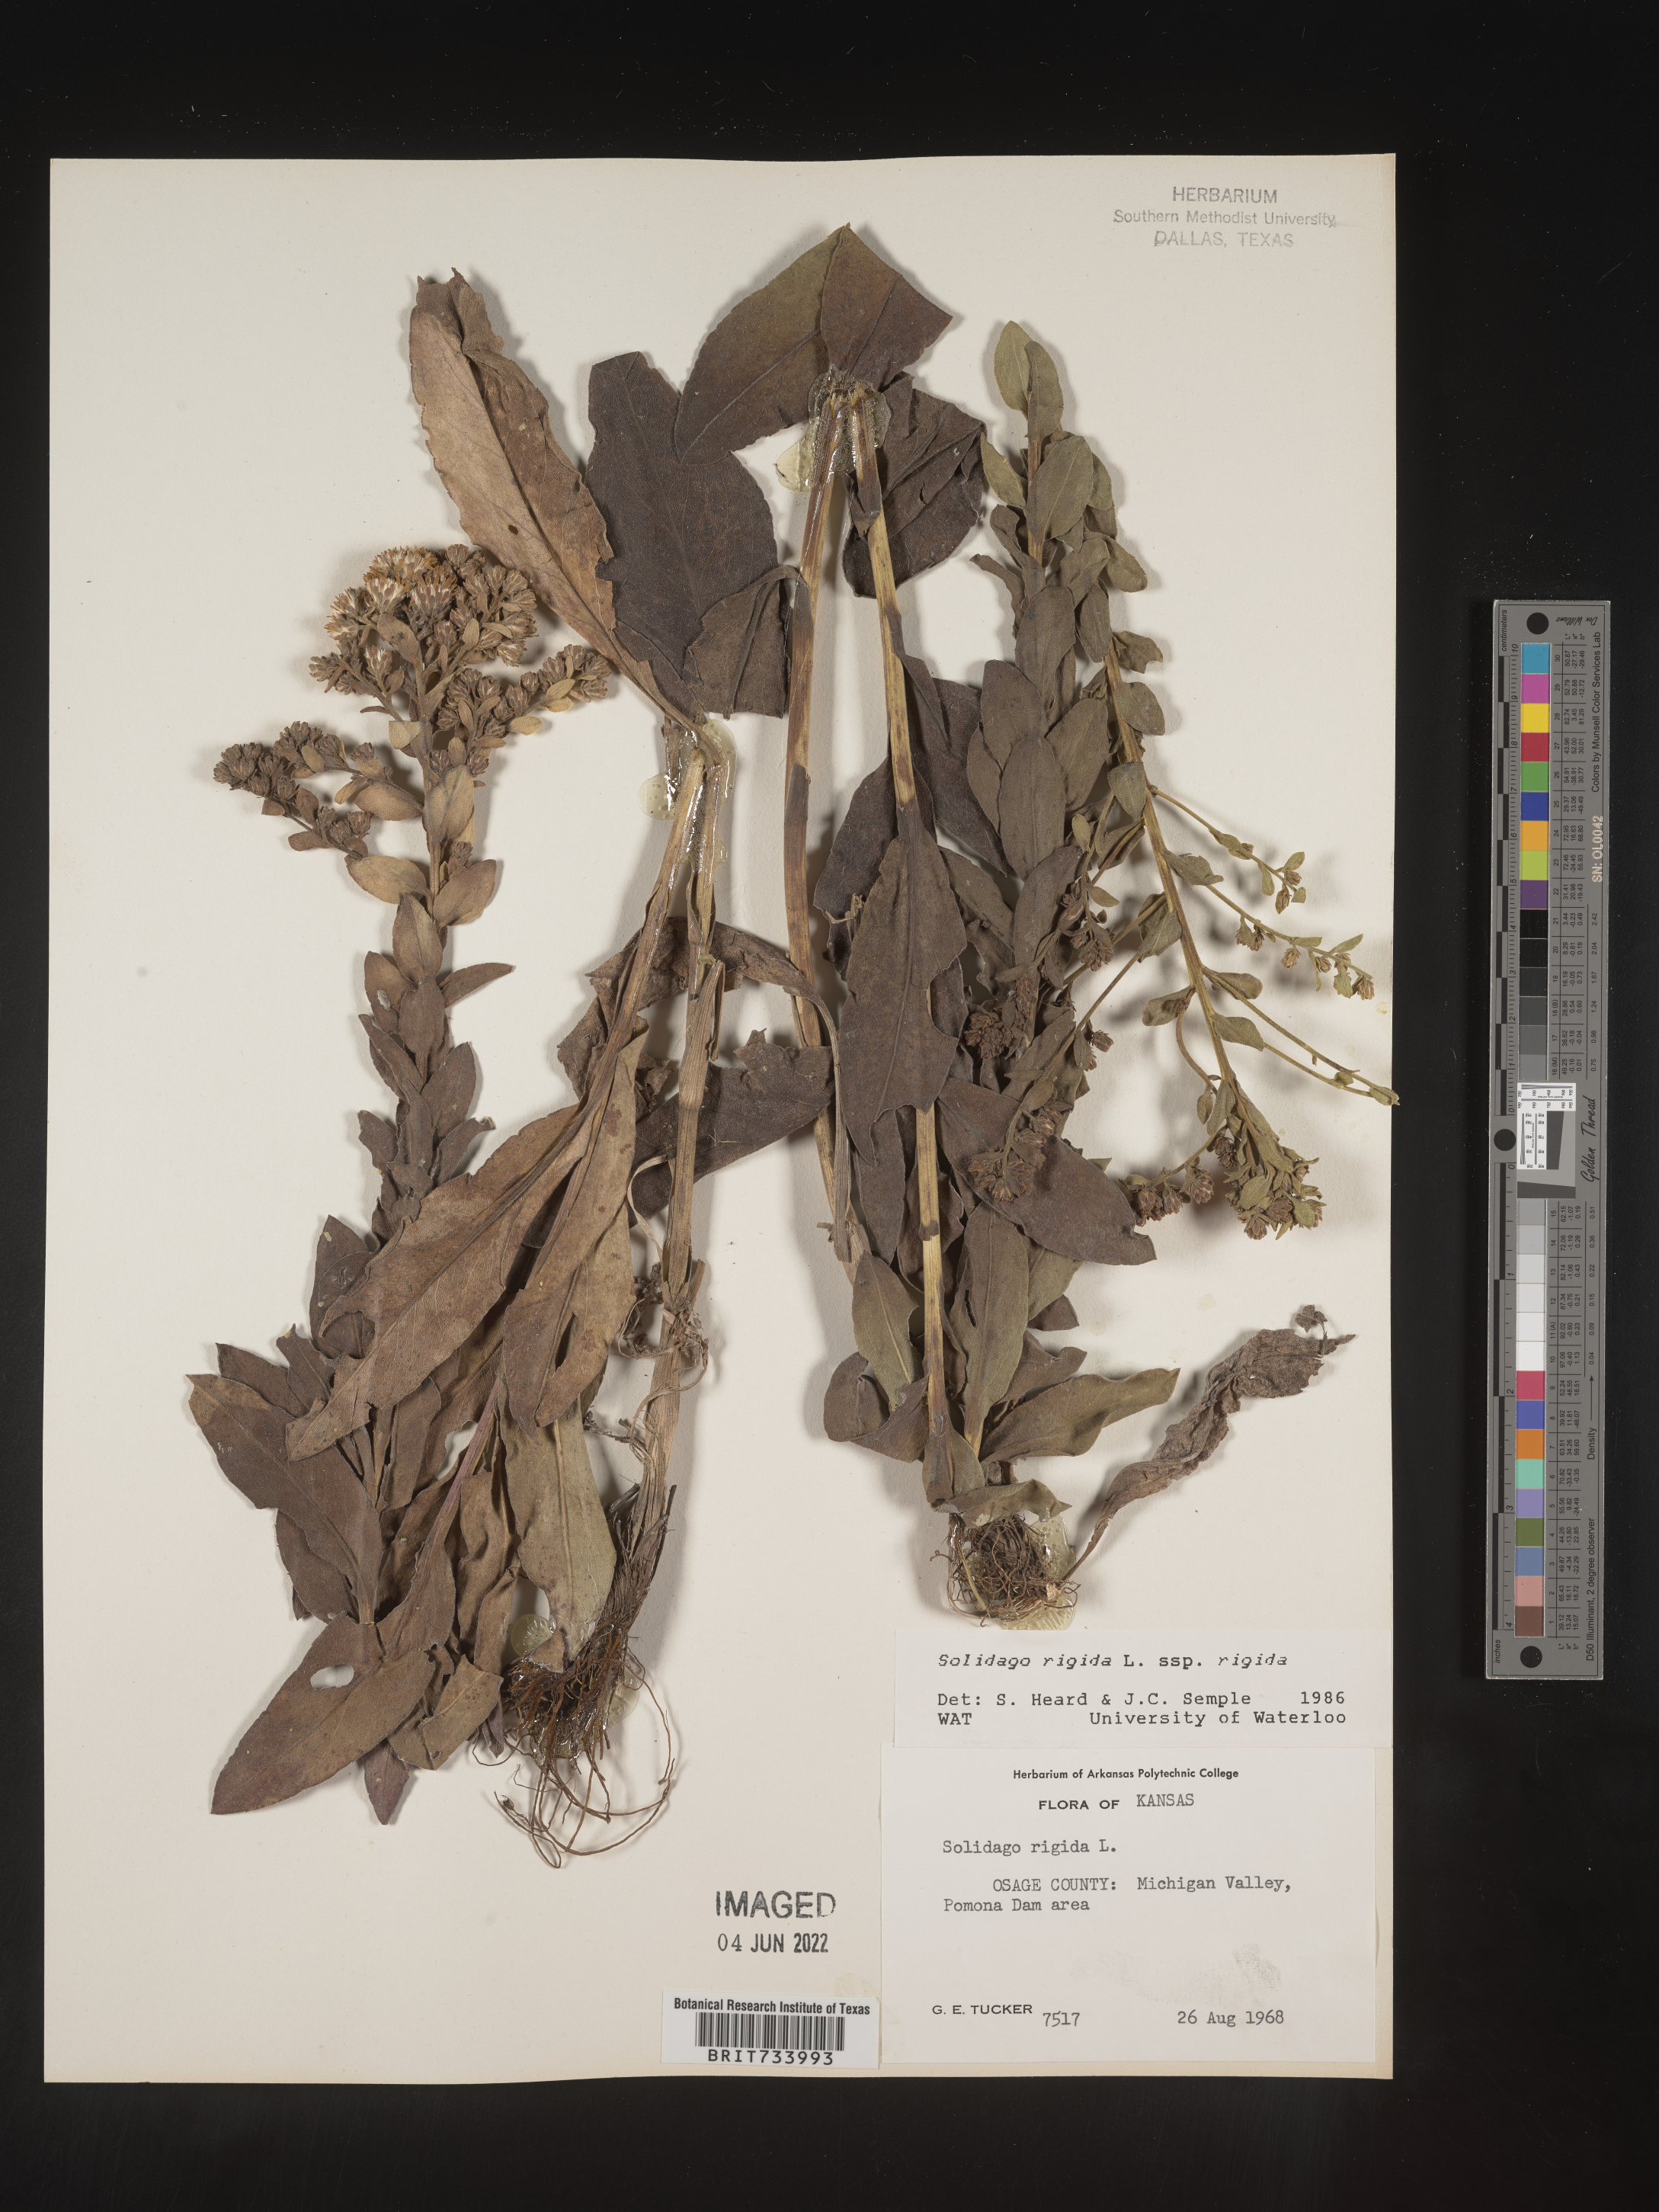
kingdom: Plantae
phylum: Tracheophyta
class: Magnoliopsida
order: Asterales
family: Asteraceae
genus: Solidago
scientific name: Solidago rigida
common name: Rigid goldenrod
